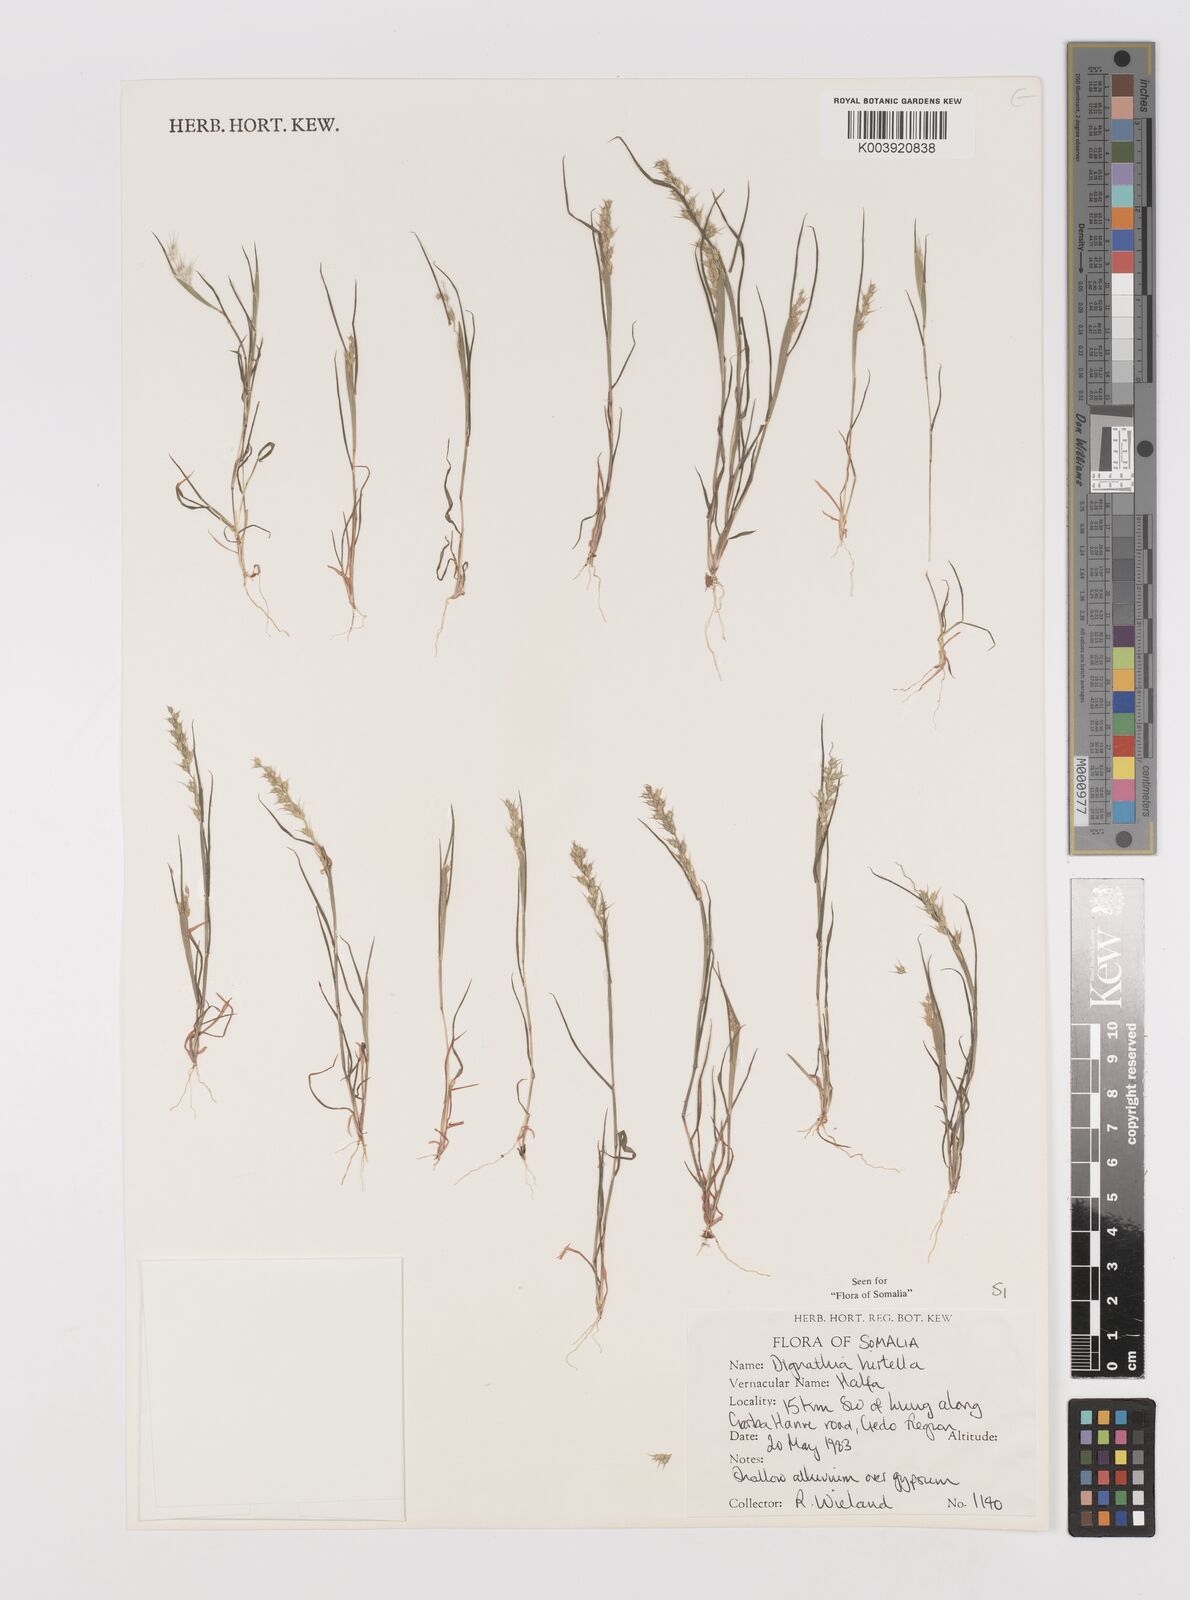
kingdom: Plantae
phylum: Tracheophyta
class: Liliopsida
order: Poales
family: Poaceae
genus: Dignathia
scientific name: Dignathia hirtella
